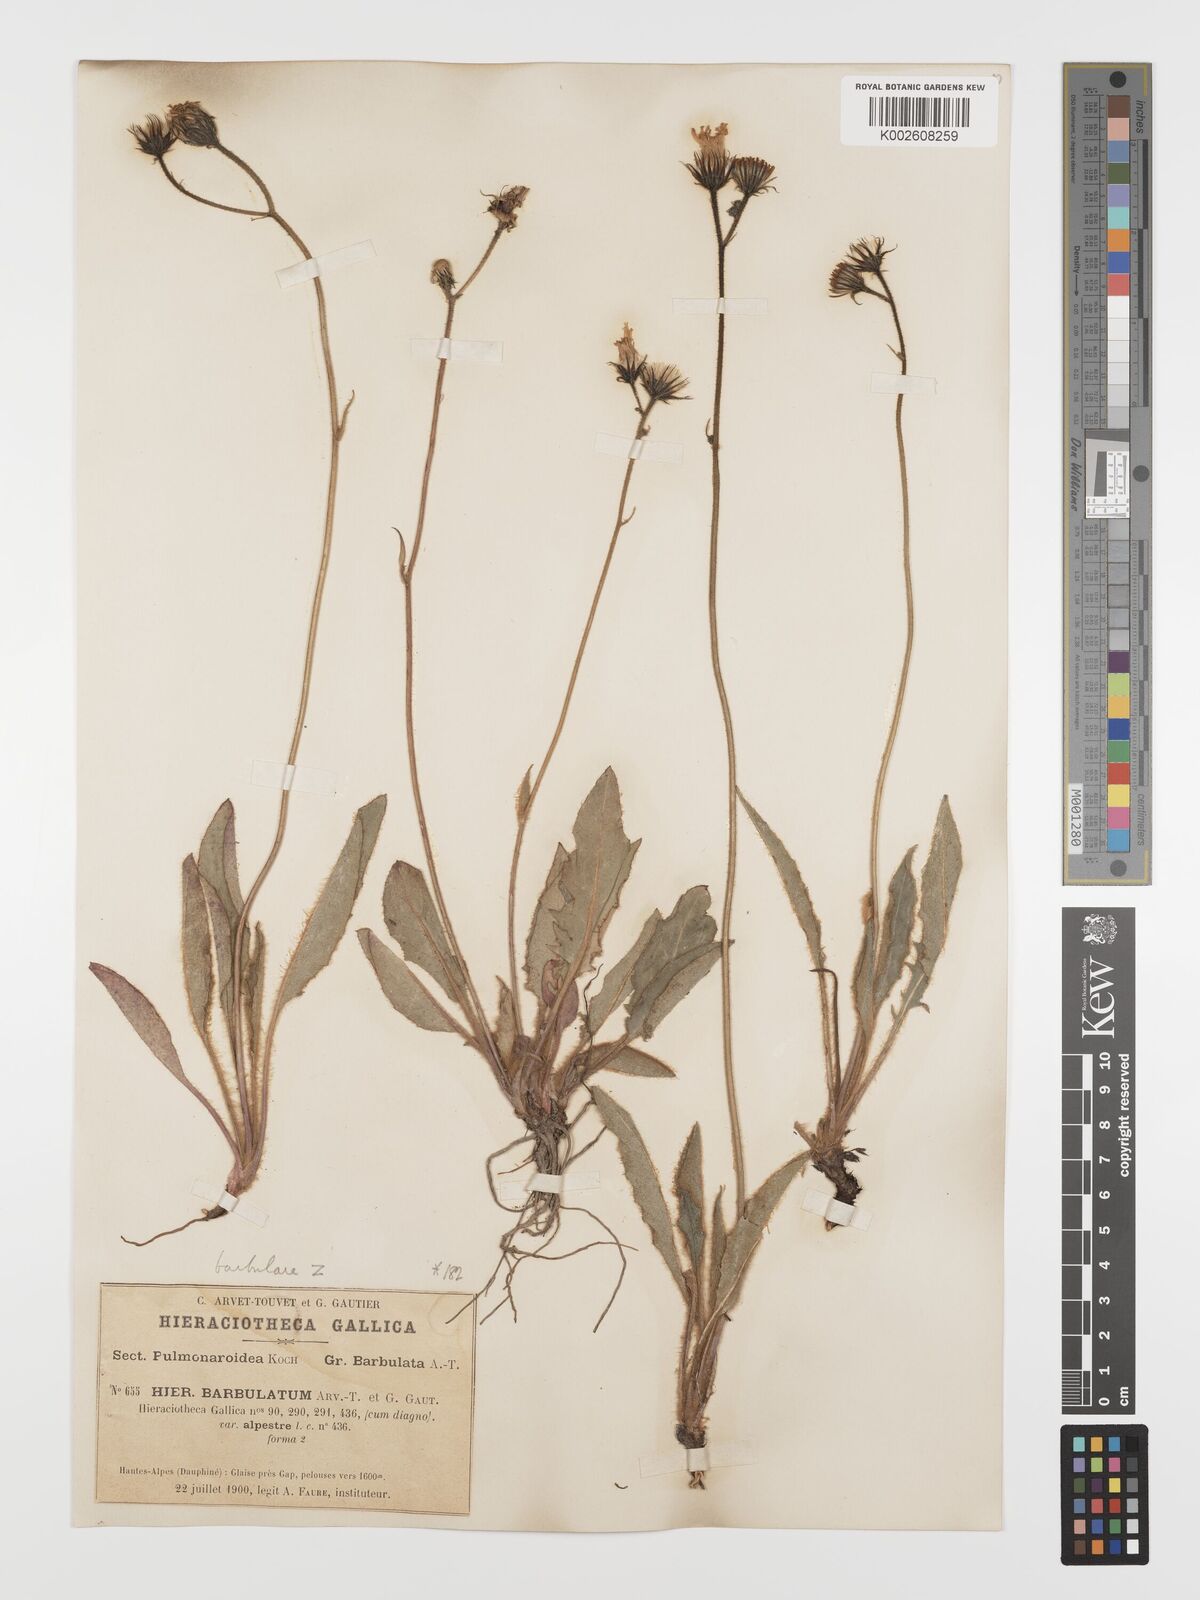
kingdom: Plantae
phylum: Tracheophyta
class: Magnoliopsida
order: Asterales
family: Asteraceae
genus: Hieracium
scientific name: Hieracium olivaceum
